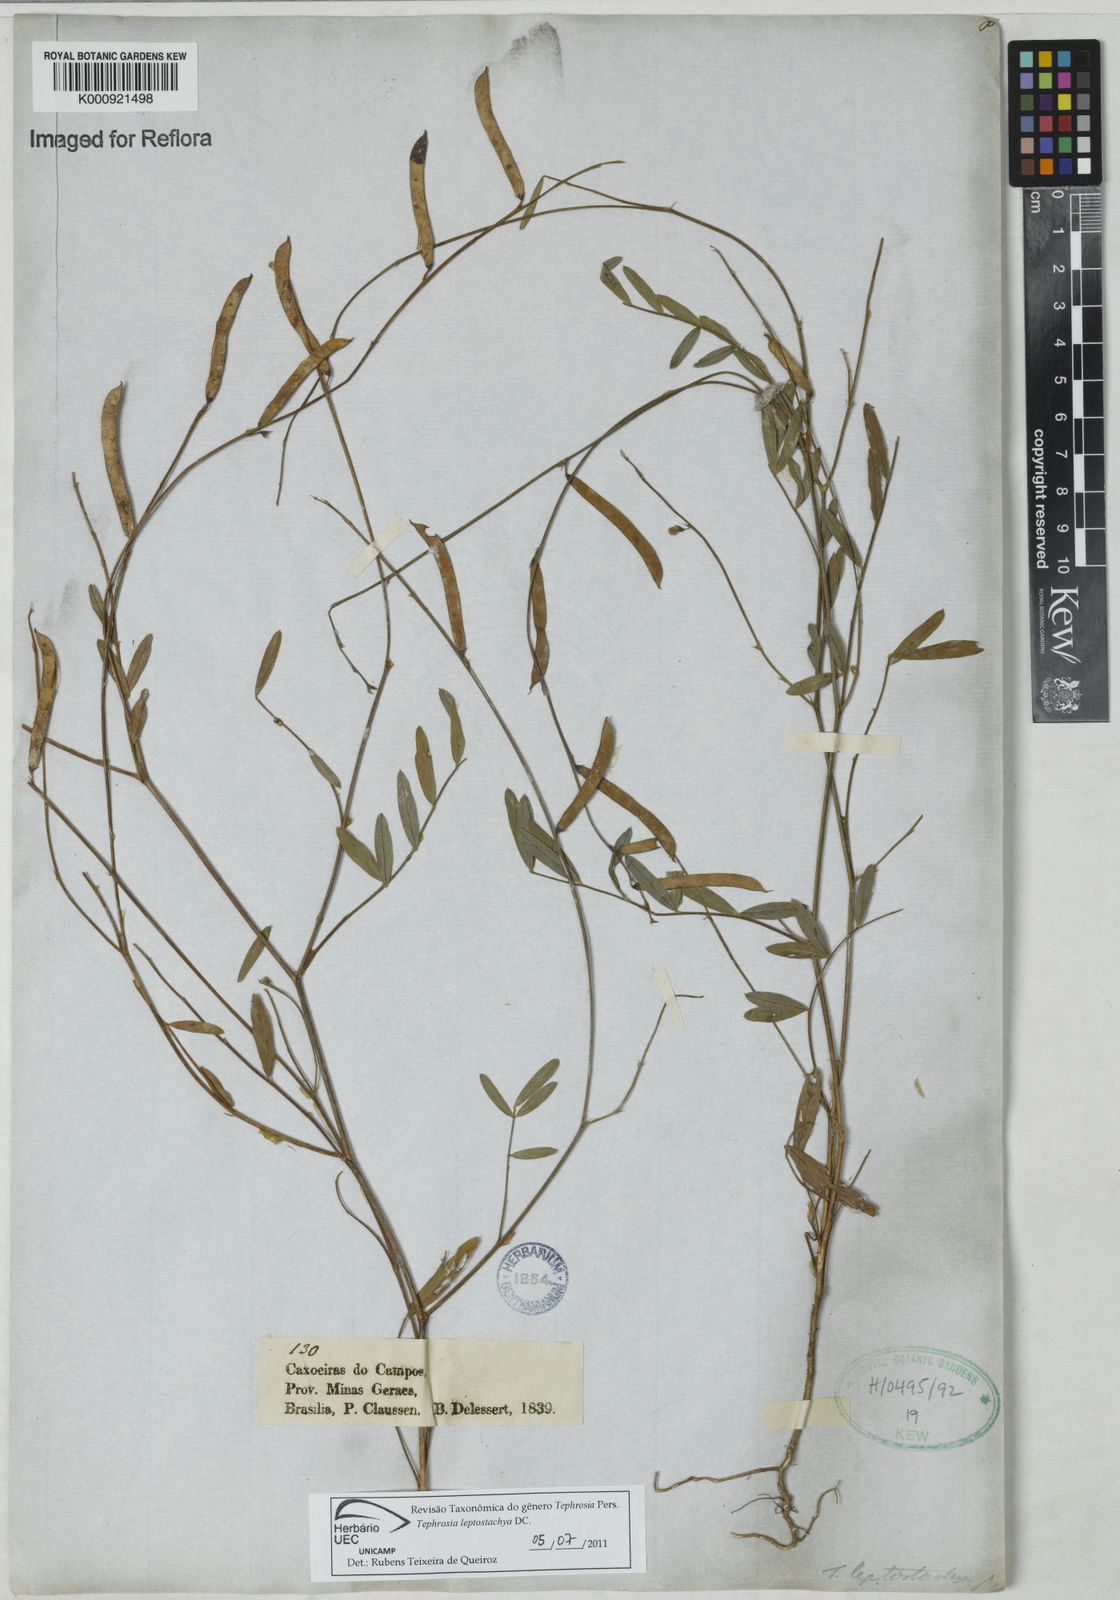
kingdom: Plantae
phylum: Tracheophyta
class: Magnoliopsida
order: Fabales
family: Fabaceae
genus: Tephrosia
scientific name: Tephrosia purpurea
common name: Fishpoison
